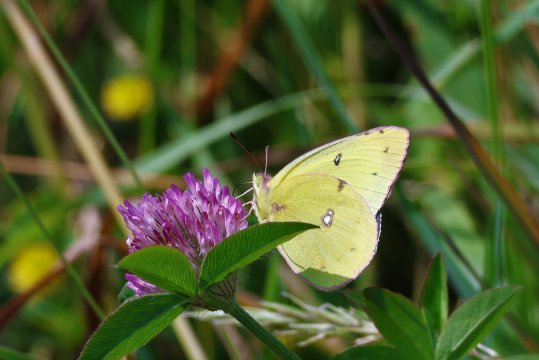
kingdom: Animalia
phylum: Arthropoda
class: Insecta
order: Lepidoptera
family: Pieridae
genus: Colias
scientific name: Colias philodice
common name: Clouded Sulphur
